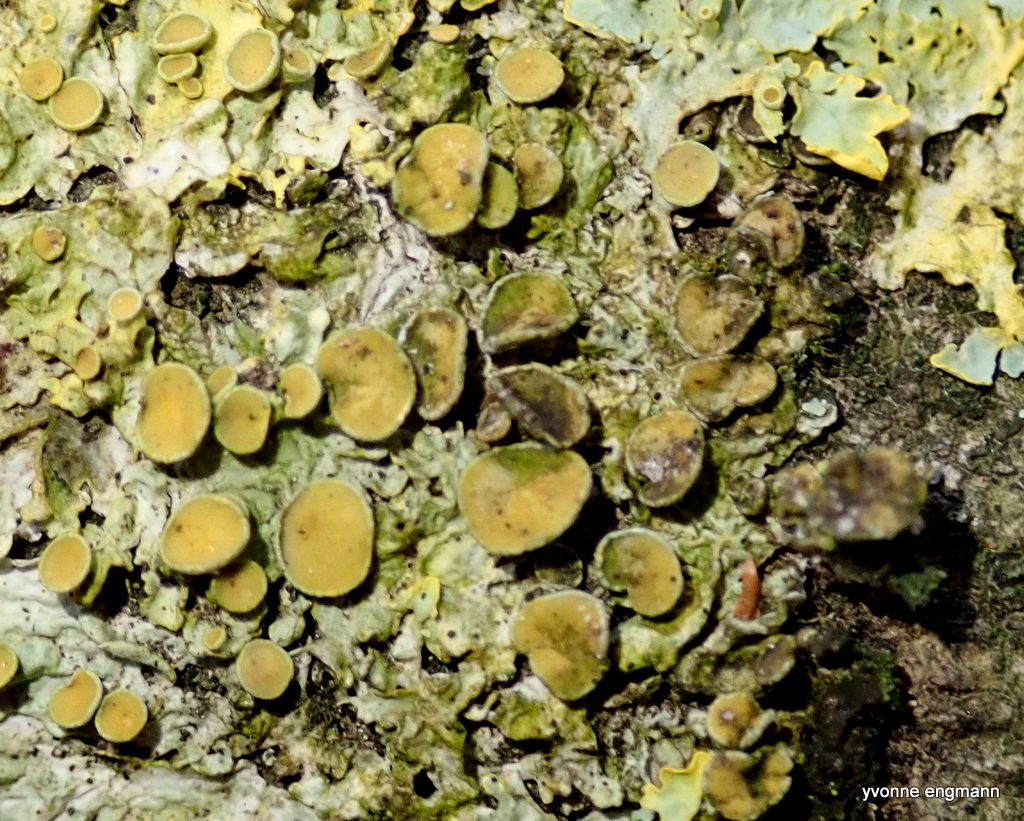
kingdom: Fungi
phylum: Ascomycota
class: Dothideomycetes
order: Mycosphaerellales
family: Teratosphaeriaceae
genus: Xanthoriicola
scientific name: Xanthoriicola physciae
